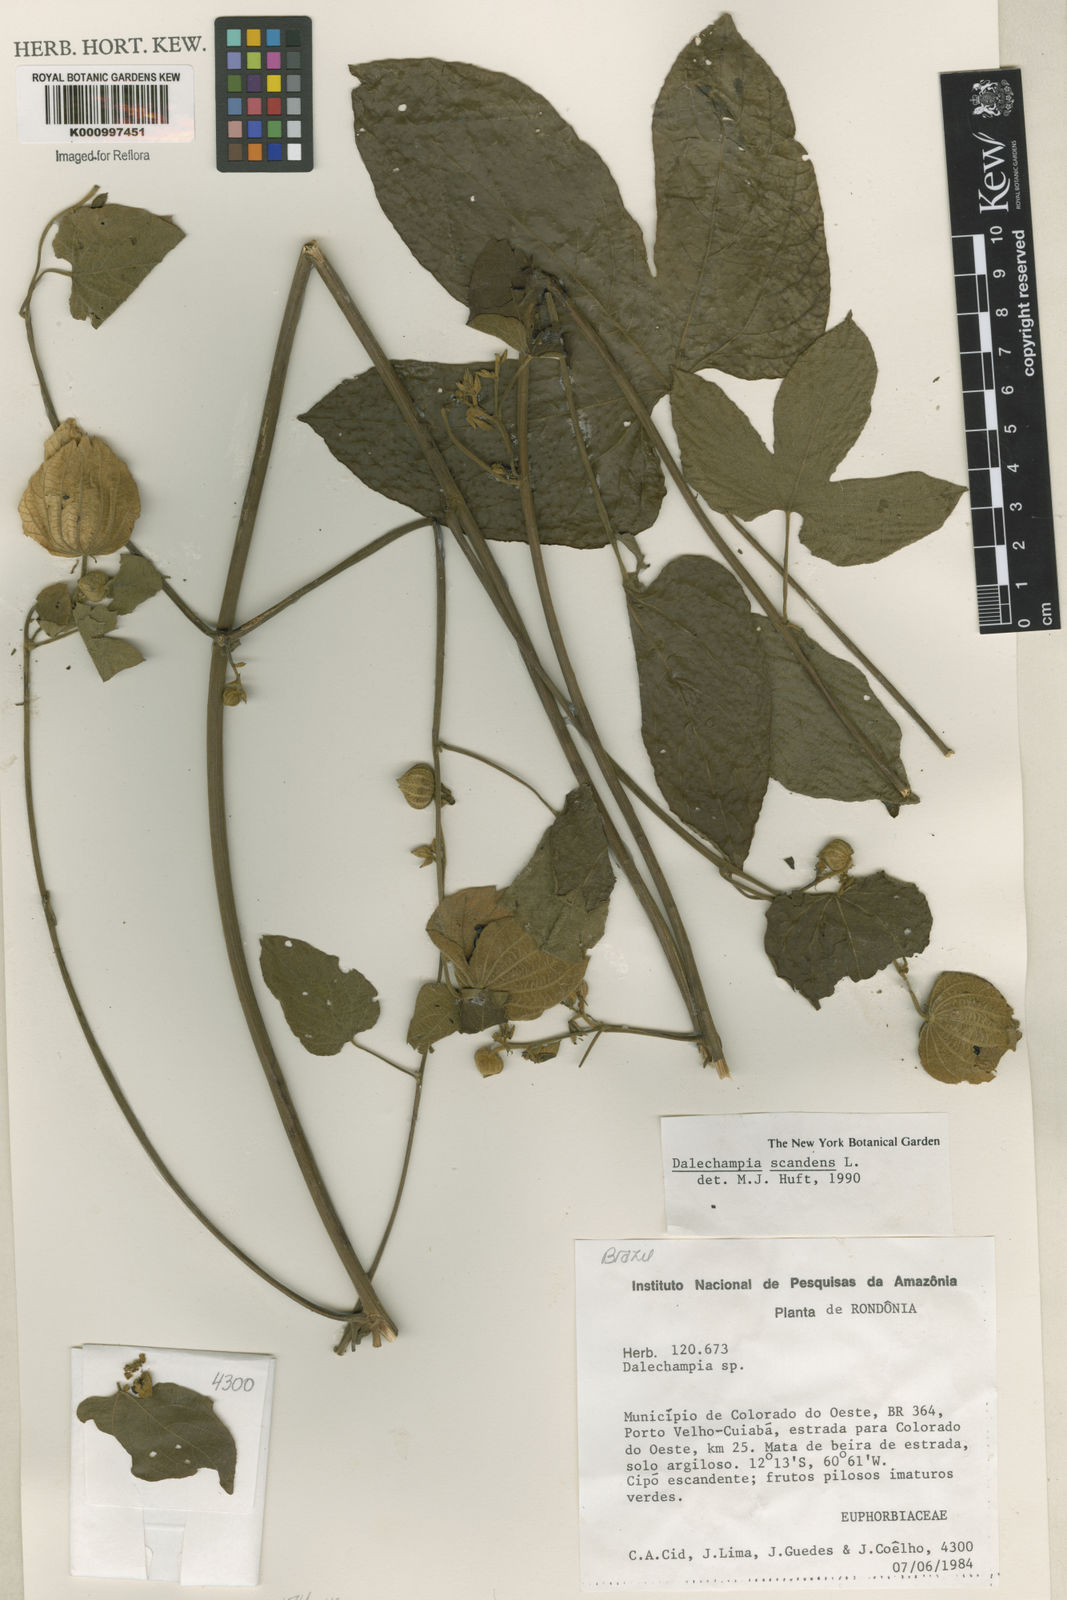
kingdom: Plantae
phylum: Tracheophyta
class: Magnoliopsida
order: Malpighiales
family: Euphorbiaceae
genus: Dalechampia
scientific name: Dalechampia scandens
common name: Spurgecreeper
